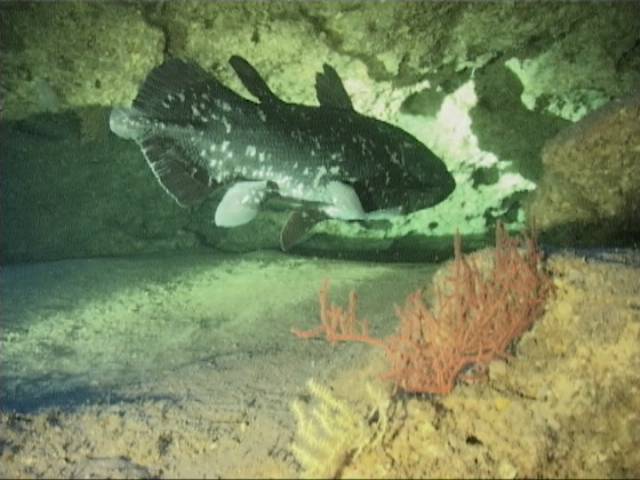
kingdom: Animalia
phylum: Chordata
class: Coelacanthi
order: Coelacanthiformes
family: Latimeriidae
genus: Latimeria
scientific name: Latimeria chalumnae
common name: Coelacanth
